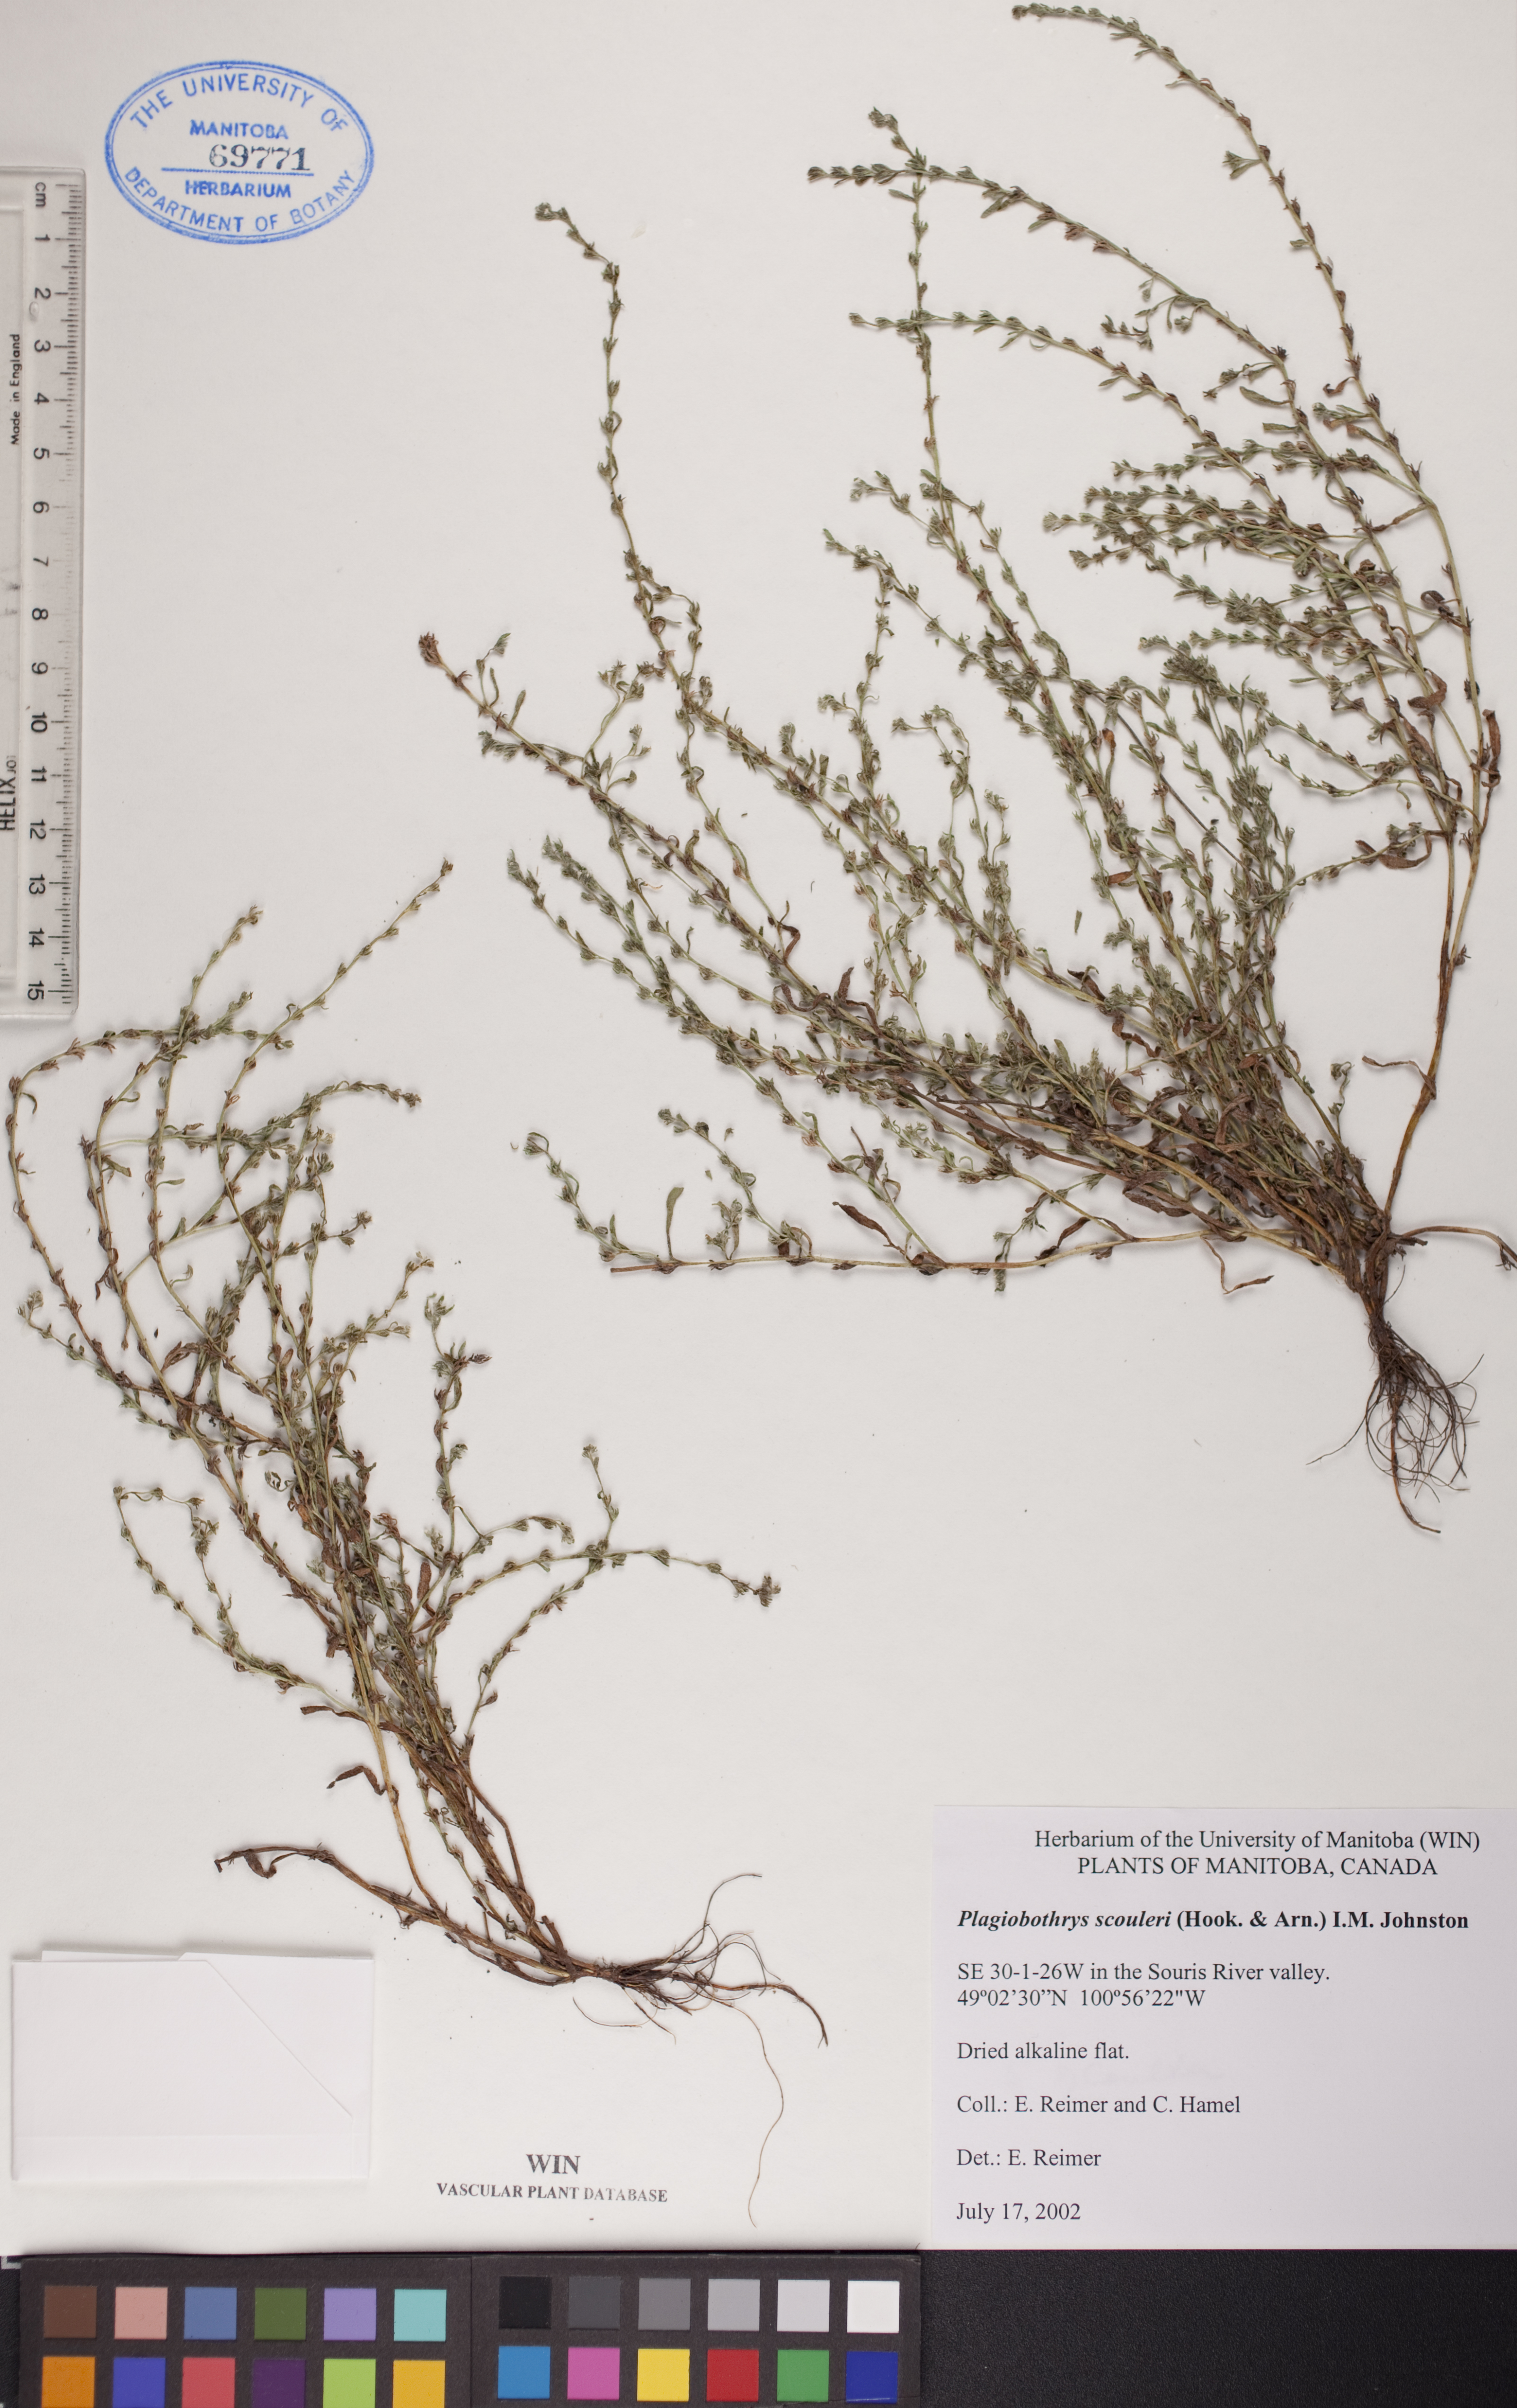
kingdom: Plantae
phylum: Tracheophyta
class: Magnoliopsida
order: Boraginales
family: Boraginaceae
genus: Plagiobothrys
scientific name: Plagiobothrys scouleri
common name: White forget-me-not
